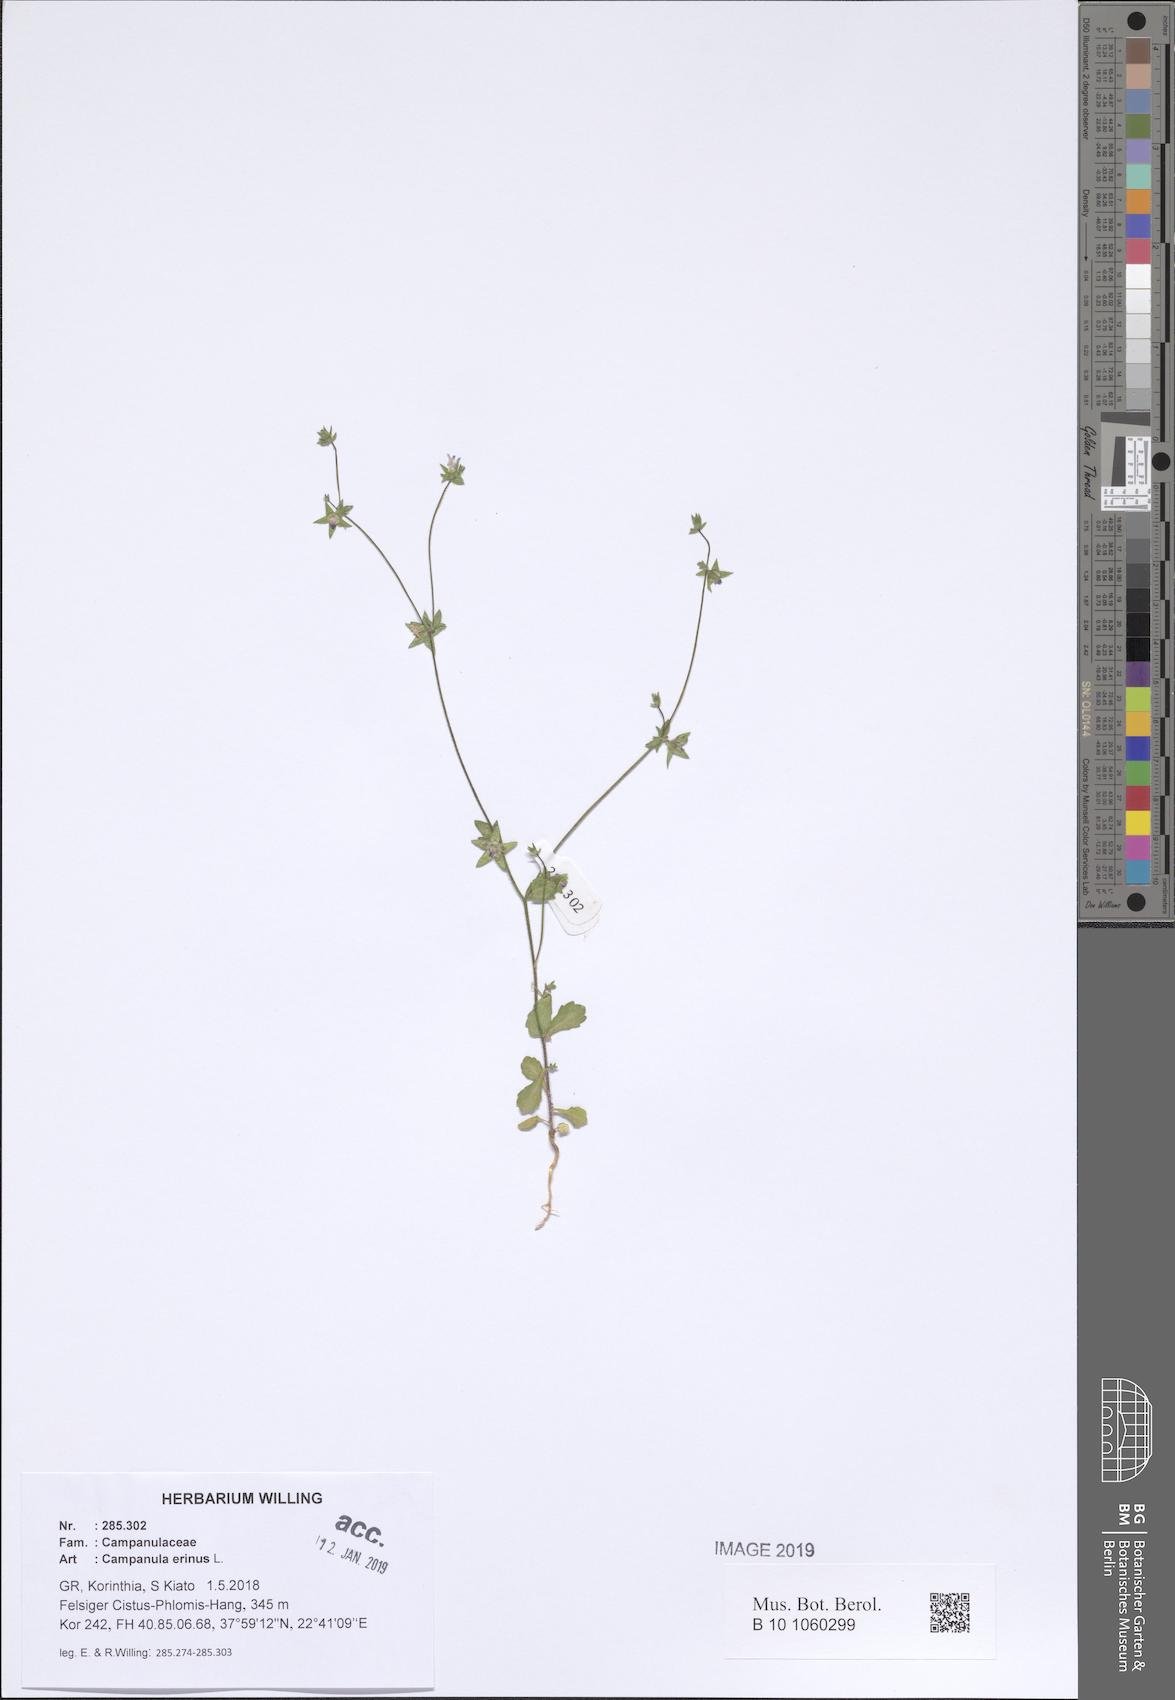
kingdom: Plantae
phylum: Tracheophyta
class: Magnoliopsida
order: Asterales
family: Campanulaceae
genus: Campanula
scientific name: Campanula erinus
